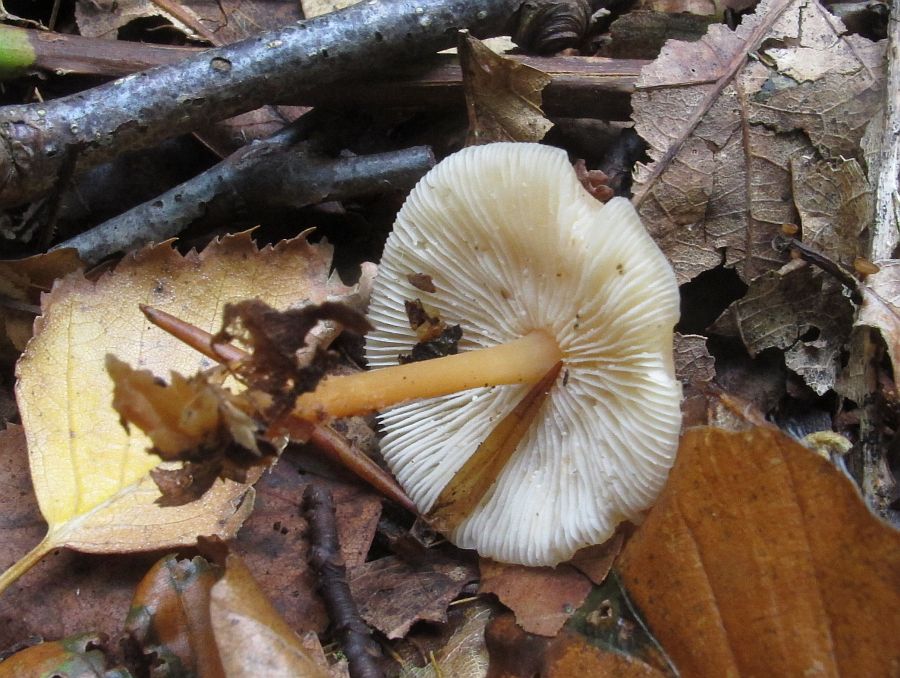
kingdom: Fungi
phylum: Basidiomycota
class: Agaricomycetes
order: Agaricales
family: Omphalotaceae
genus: Gymnopus
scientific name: Gymnopus dryophilus
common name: løv-fladhat
